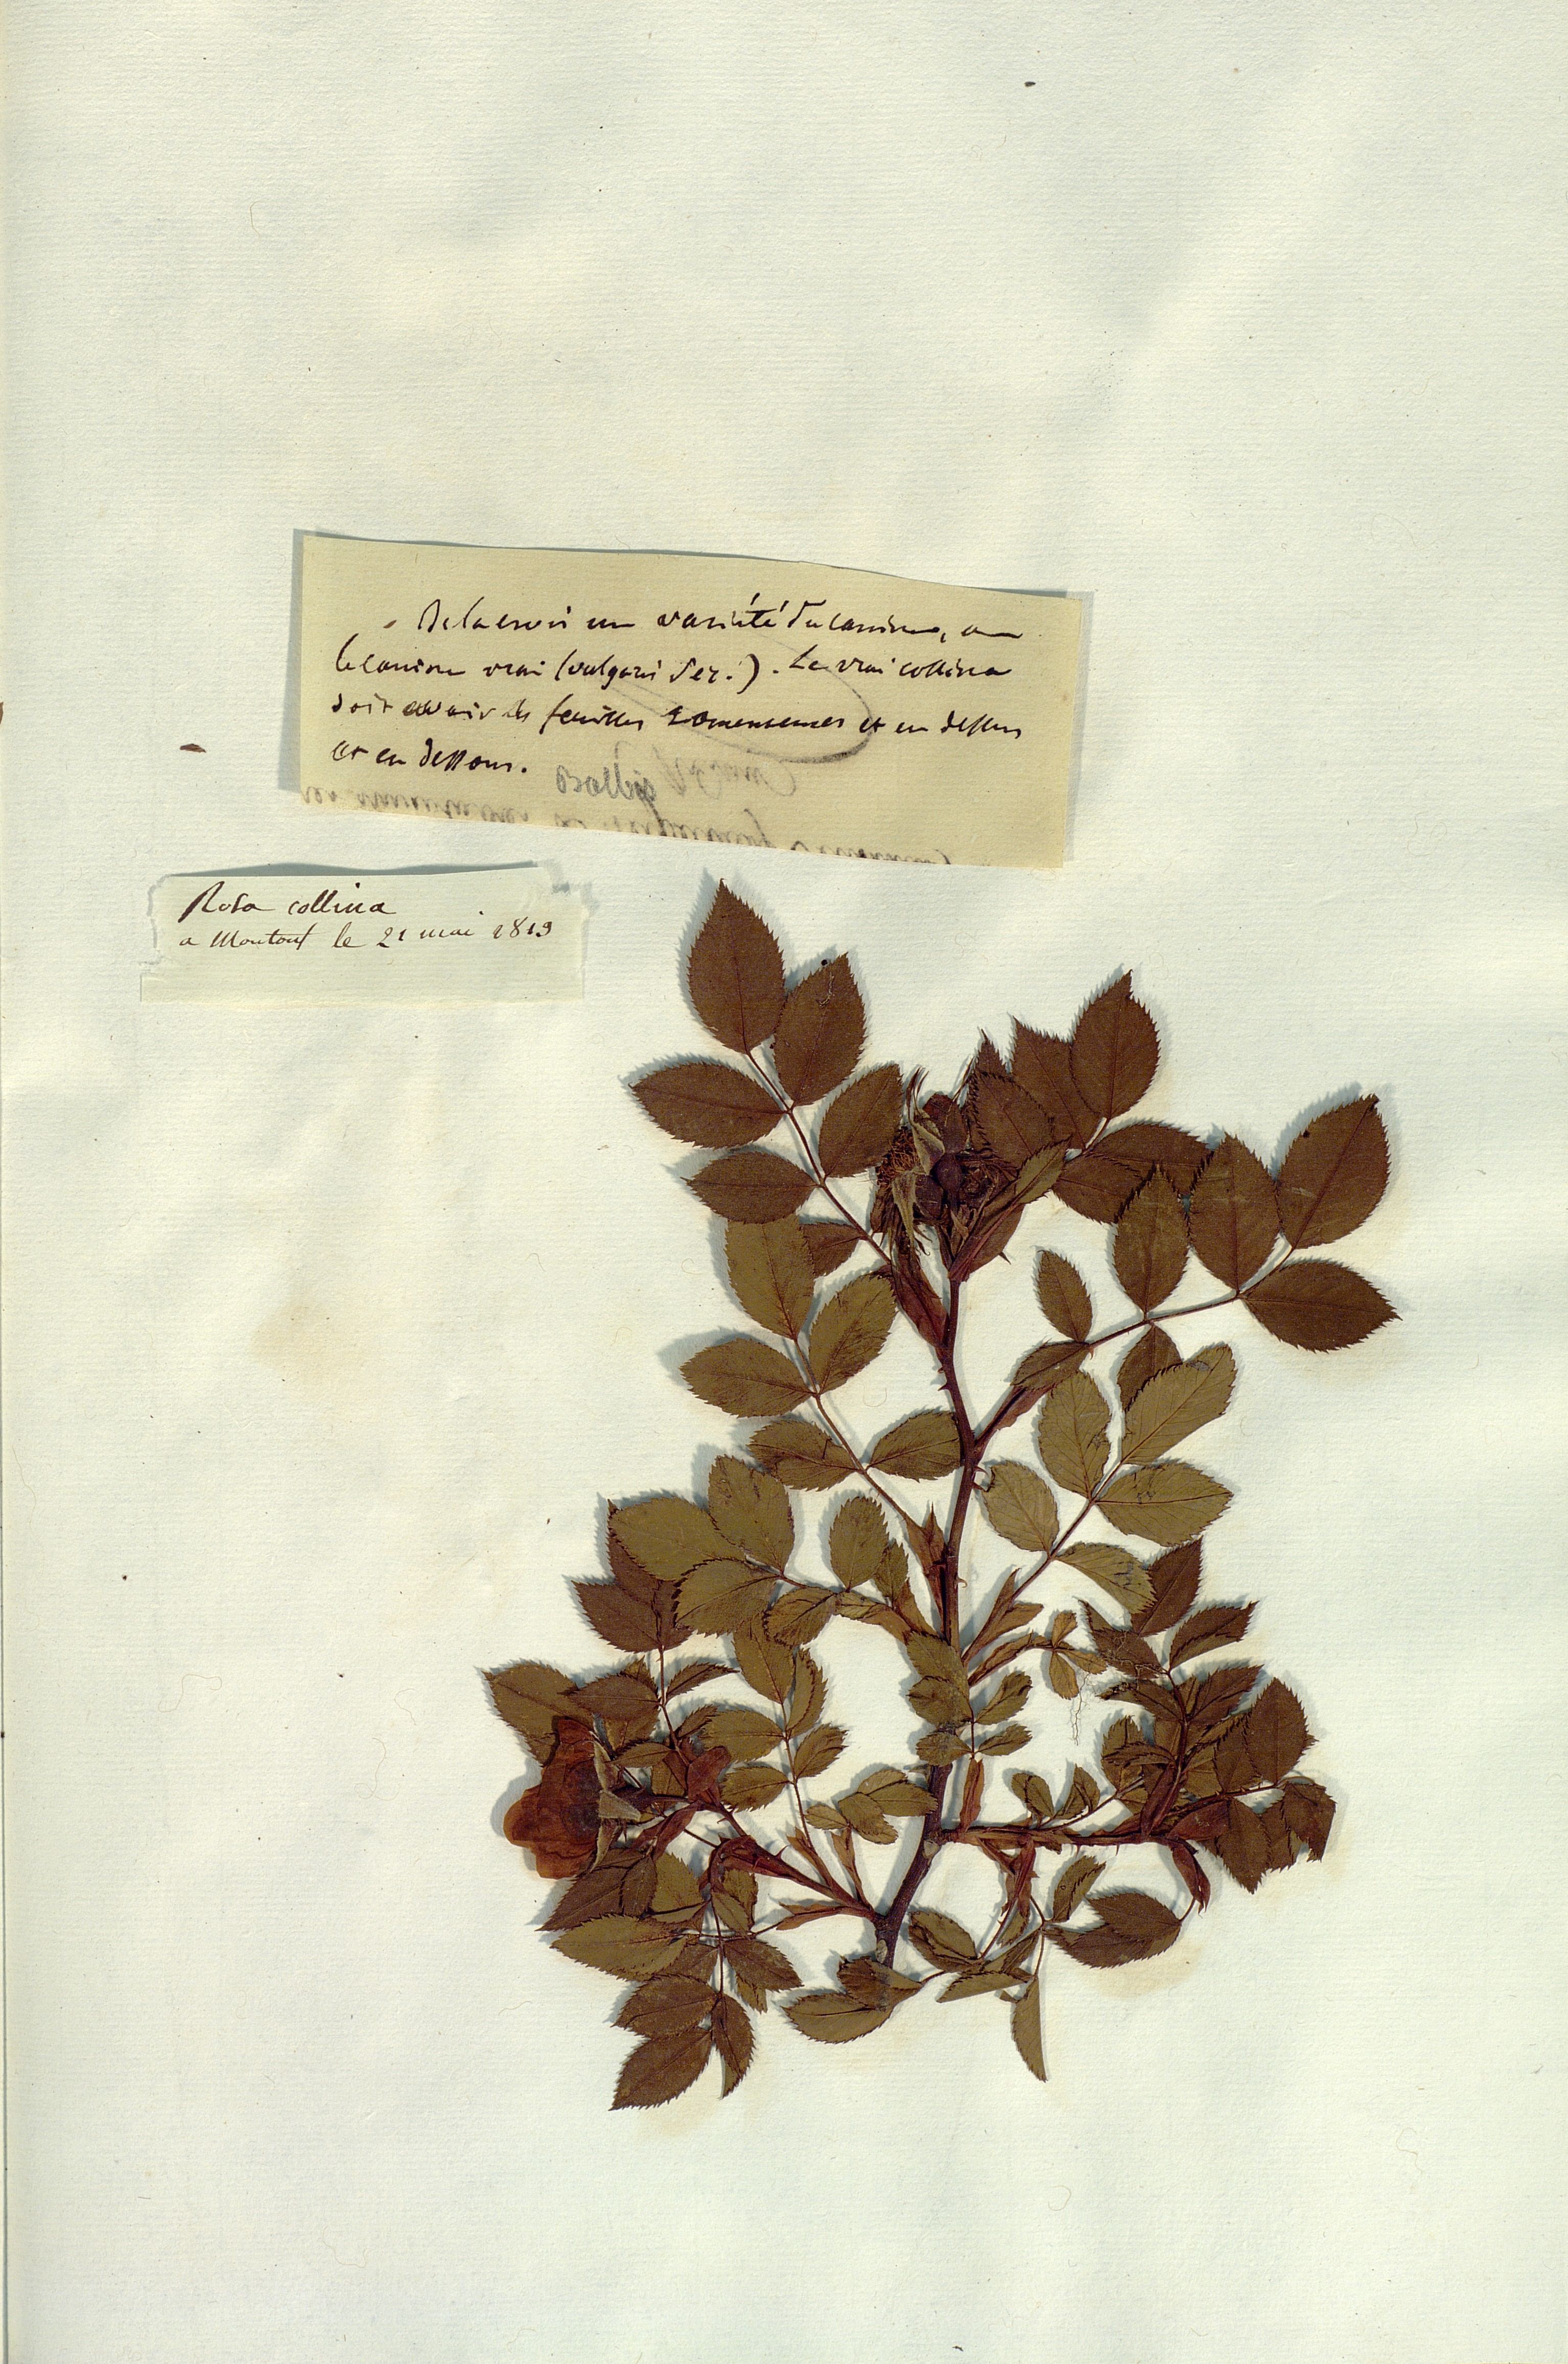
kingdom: Plantae
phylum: Tracheophyta
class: Magnoliopsida
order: Rosales
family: Rosaceae
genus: Rosa
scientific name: Rosa
